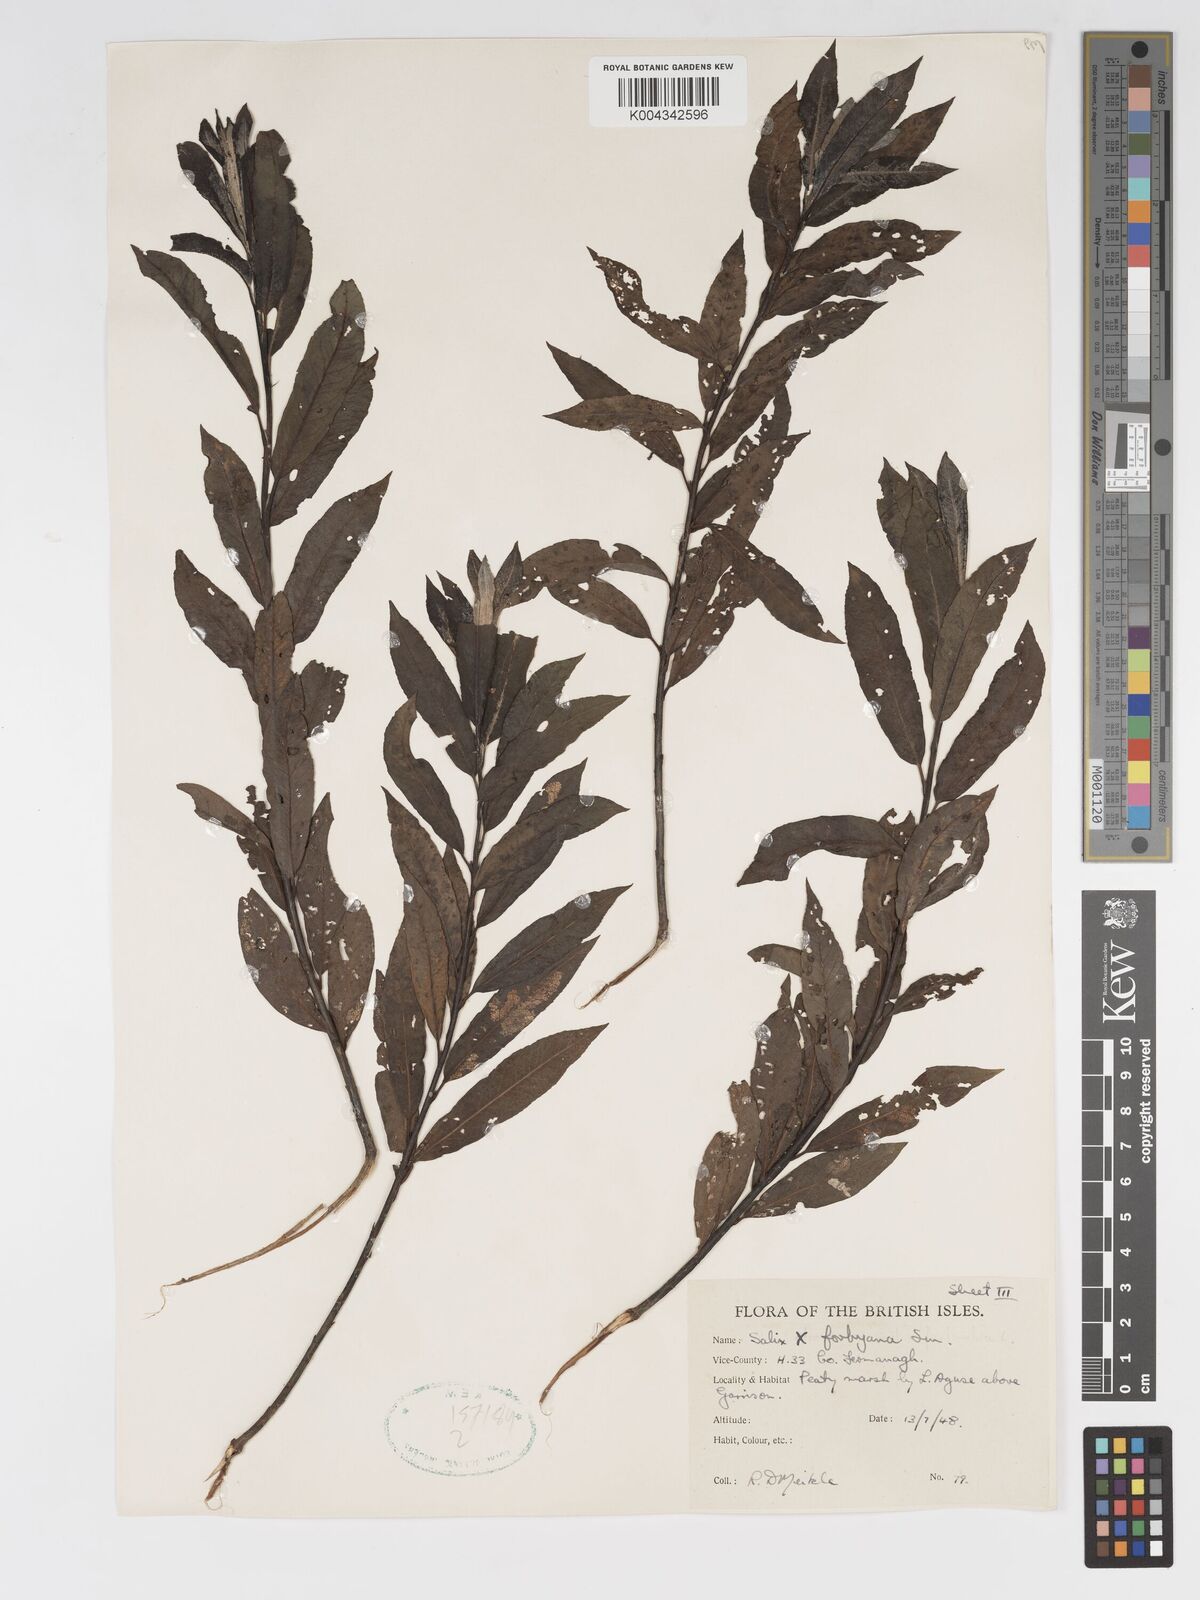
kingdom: Plantae
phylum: Tracheophyta
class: Magnoliopsida
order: Malpighiales
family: Salicaceae
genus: Salix
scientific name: Salix cinerea
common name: Common sallow
